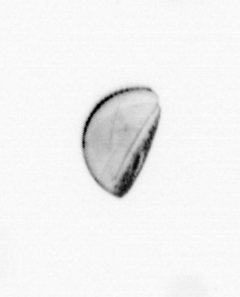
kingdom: Chromista
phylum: Ochrophyta
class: Bacillariophyceae
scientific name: Bacillariophyceae
